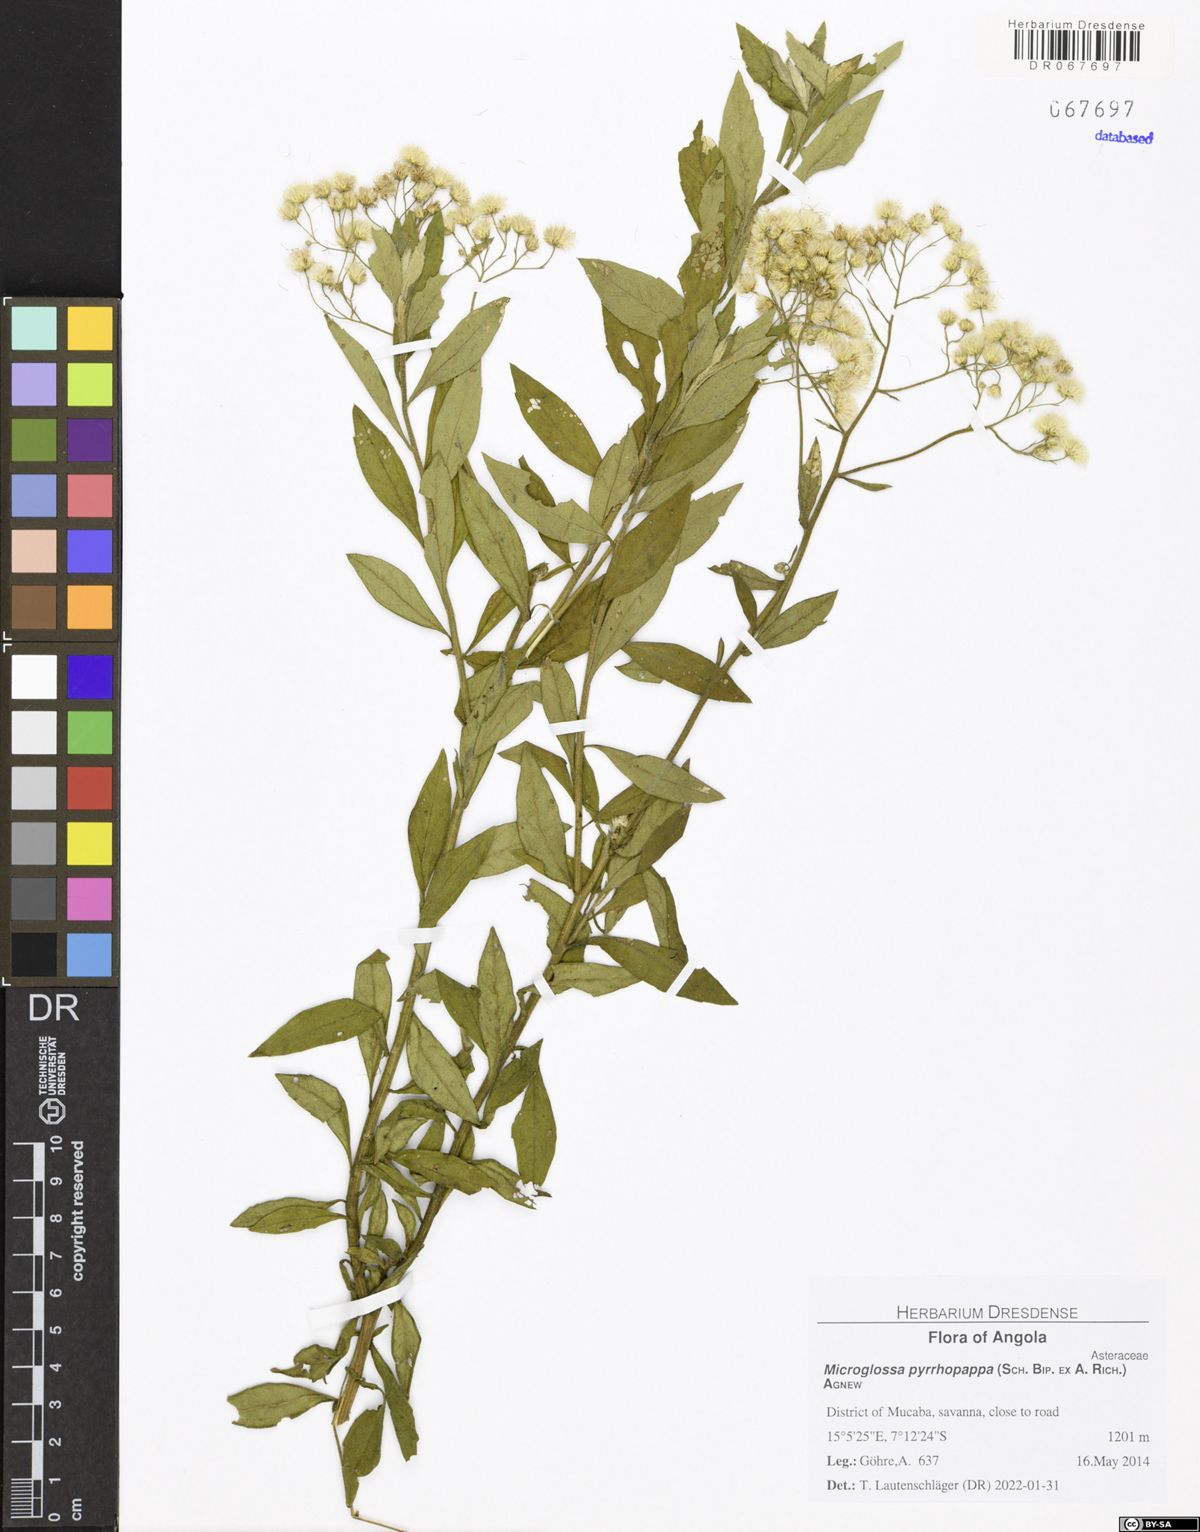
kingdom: Plantae
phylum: Tracheophyta
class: Magnoliopsida
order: Asterales
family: Asteraceae
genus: Microglossa
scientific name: Microglossa pyrrhopappa
